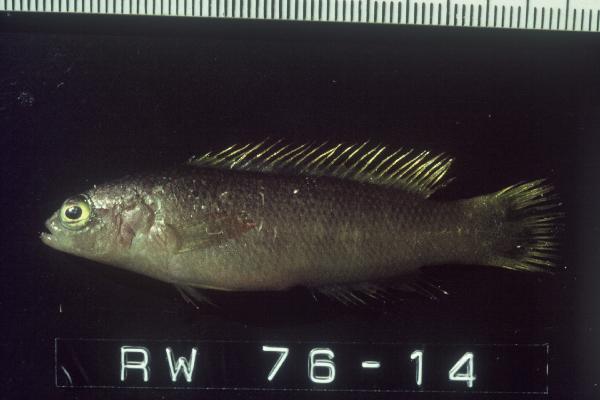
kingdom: Animalia
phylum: Chordata
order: Perciformes
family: Pseudochromidae
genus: Pseudochromis
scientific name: Pseudochromis kristinae
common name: Lipstick dottyback
